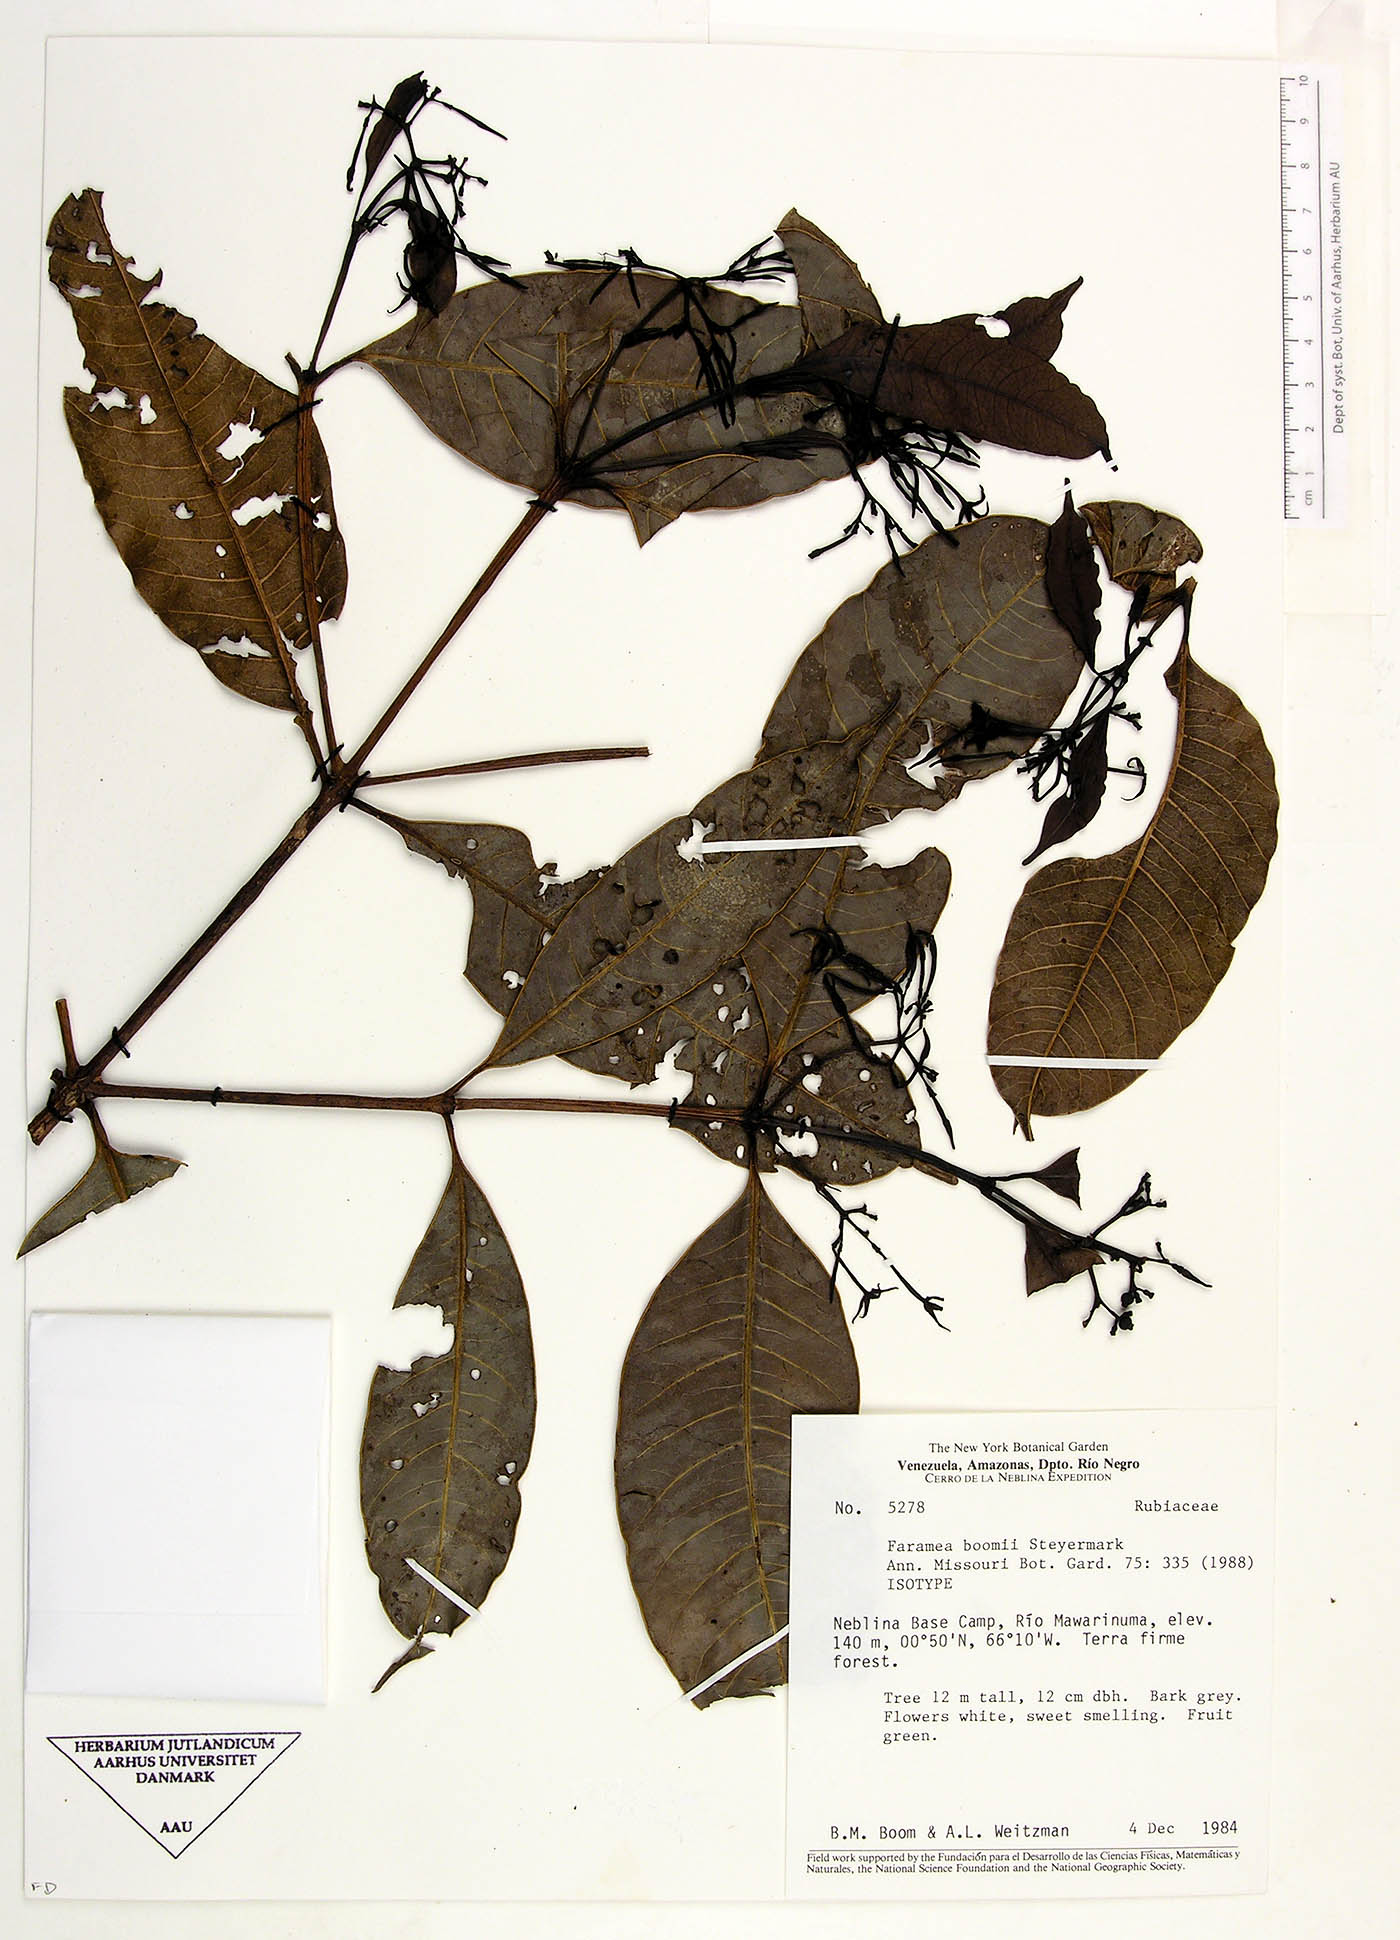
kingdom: Plantae
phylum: Tracheophyta
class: Magnoliopsida
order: Gentianales
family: Rubiaceae
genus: Faramea
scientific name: Faramea boomii
